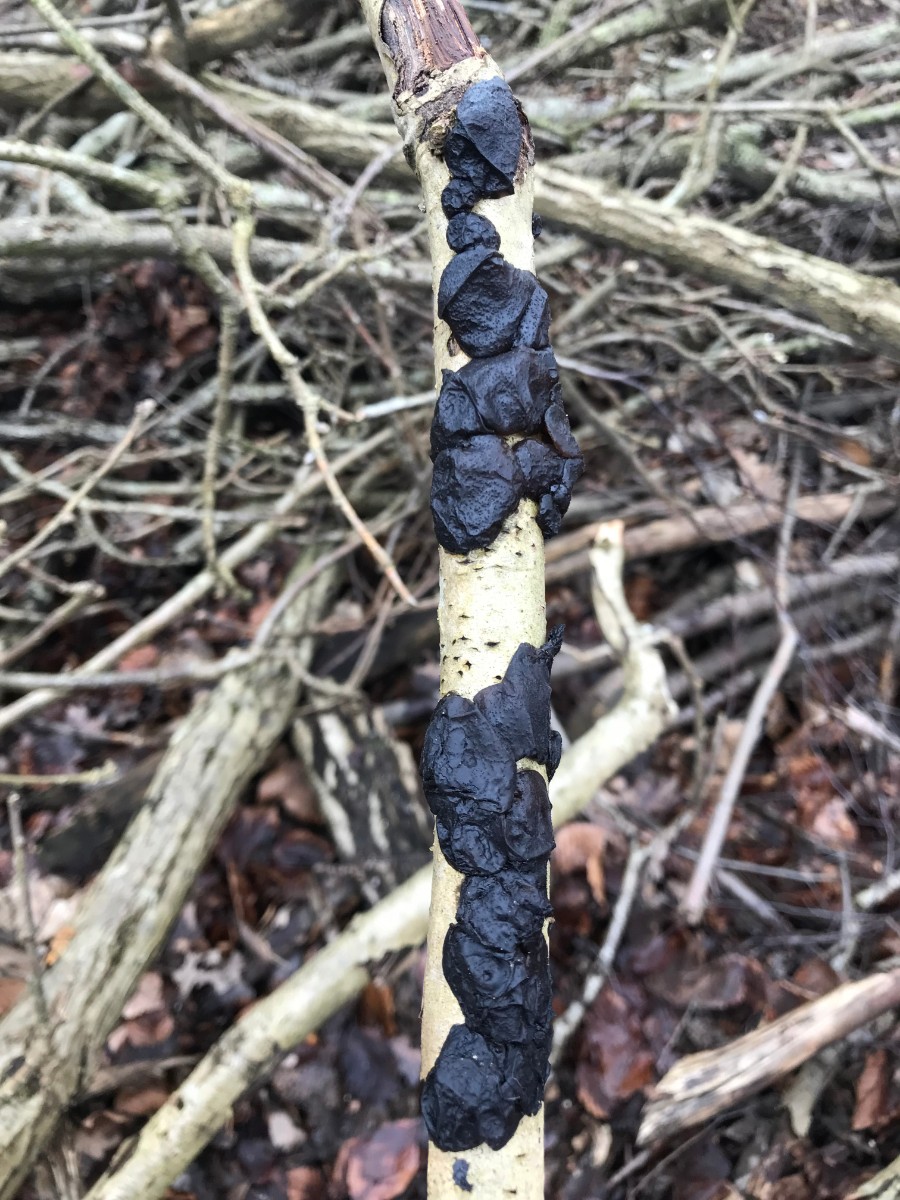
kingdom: Fungi
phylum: Basidiomycota
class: Agaricomycetes
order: Auriculariales
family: Auriculariaceae
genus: Exidia
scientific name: Exidia glandulosa
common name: ege-bævretop
